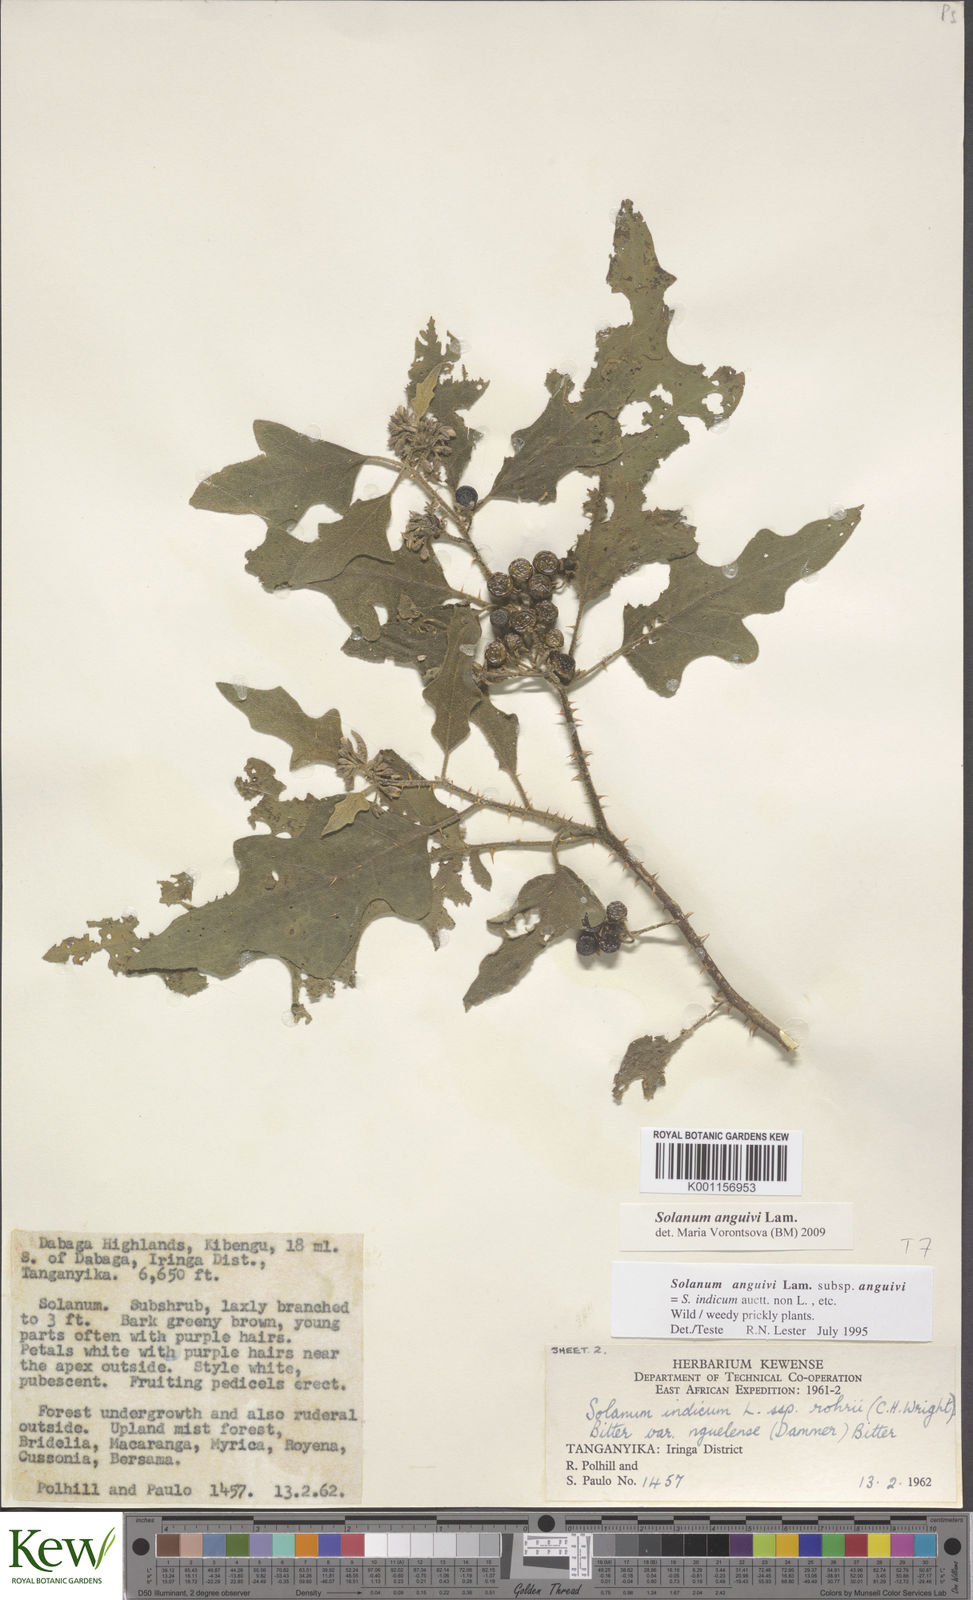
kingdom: Plantae
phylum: Tracheophyta
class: Magnoliopsida
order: Solanales
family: Solanaceae
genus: Solanum
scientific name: Solanum anguivi
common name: Forest bitterberry
